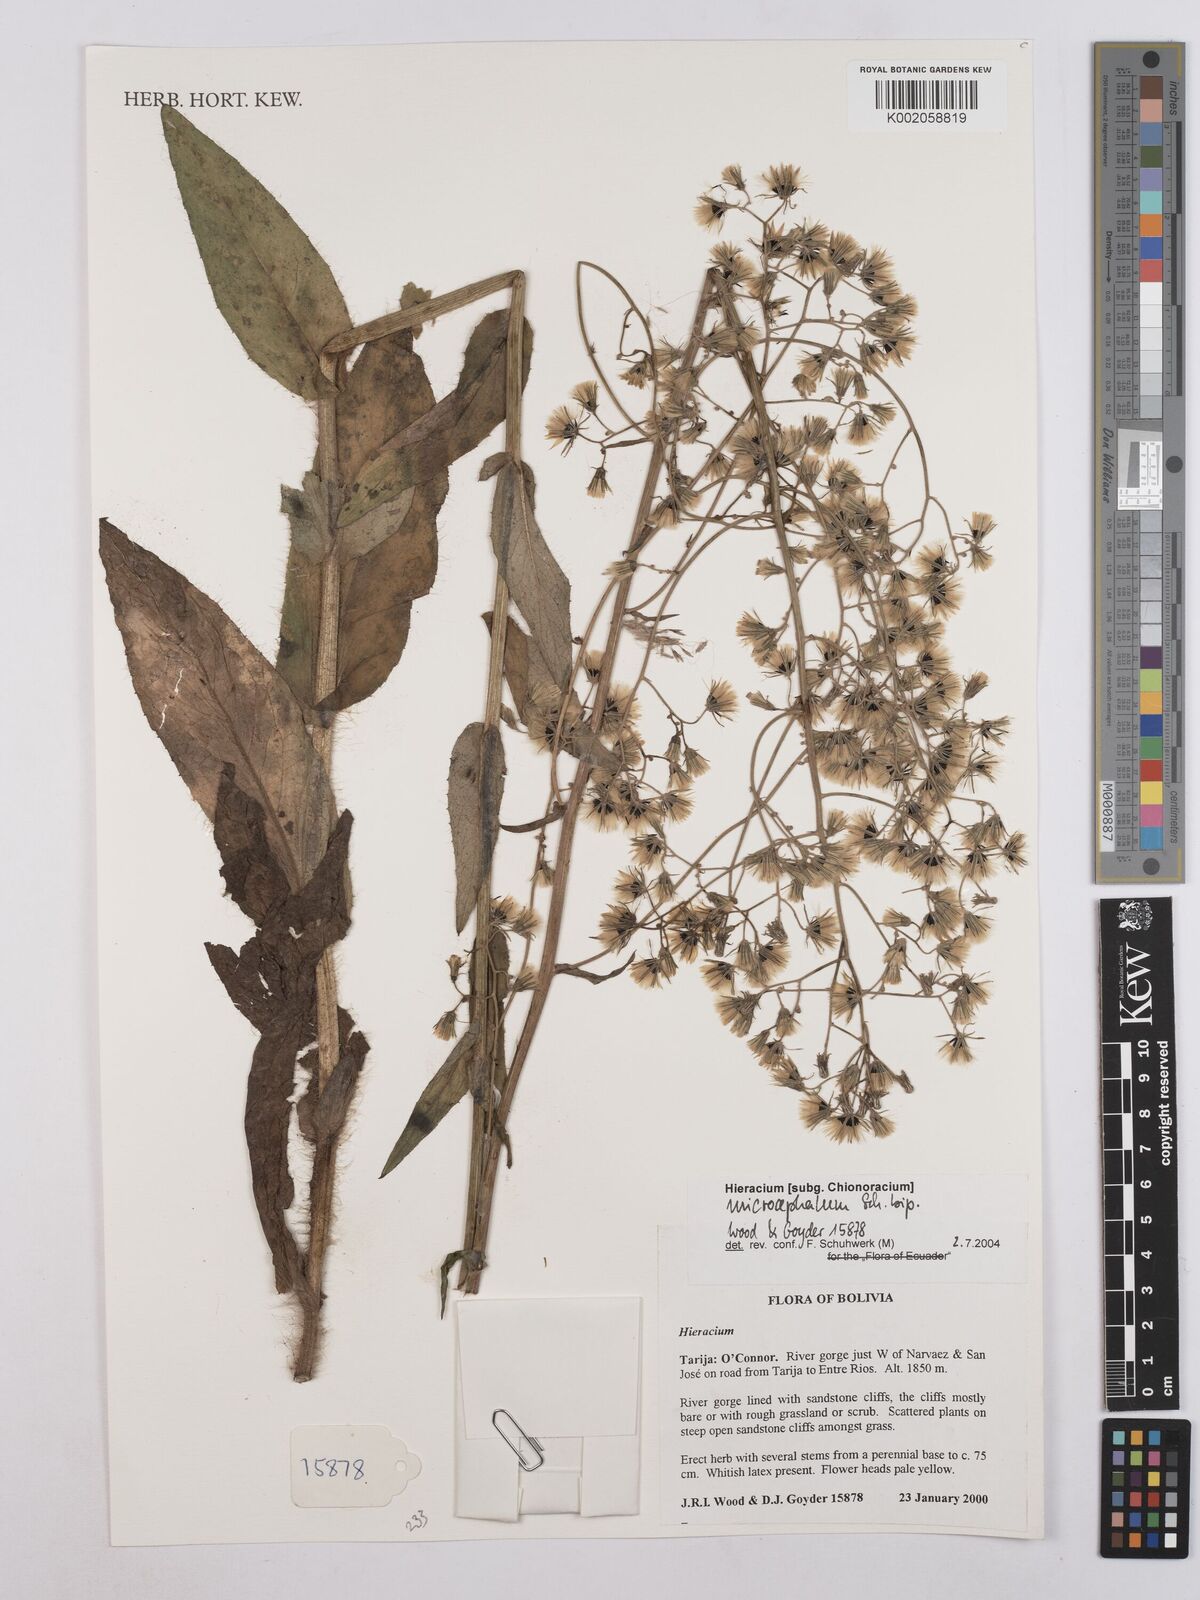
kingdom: Plantae
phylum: Tracheophyta
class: Magnoliopsida
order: Asterales
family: Asteraceae
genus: Hieracium
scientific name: Hieracium microcephalum
